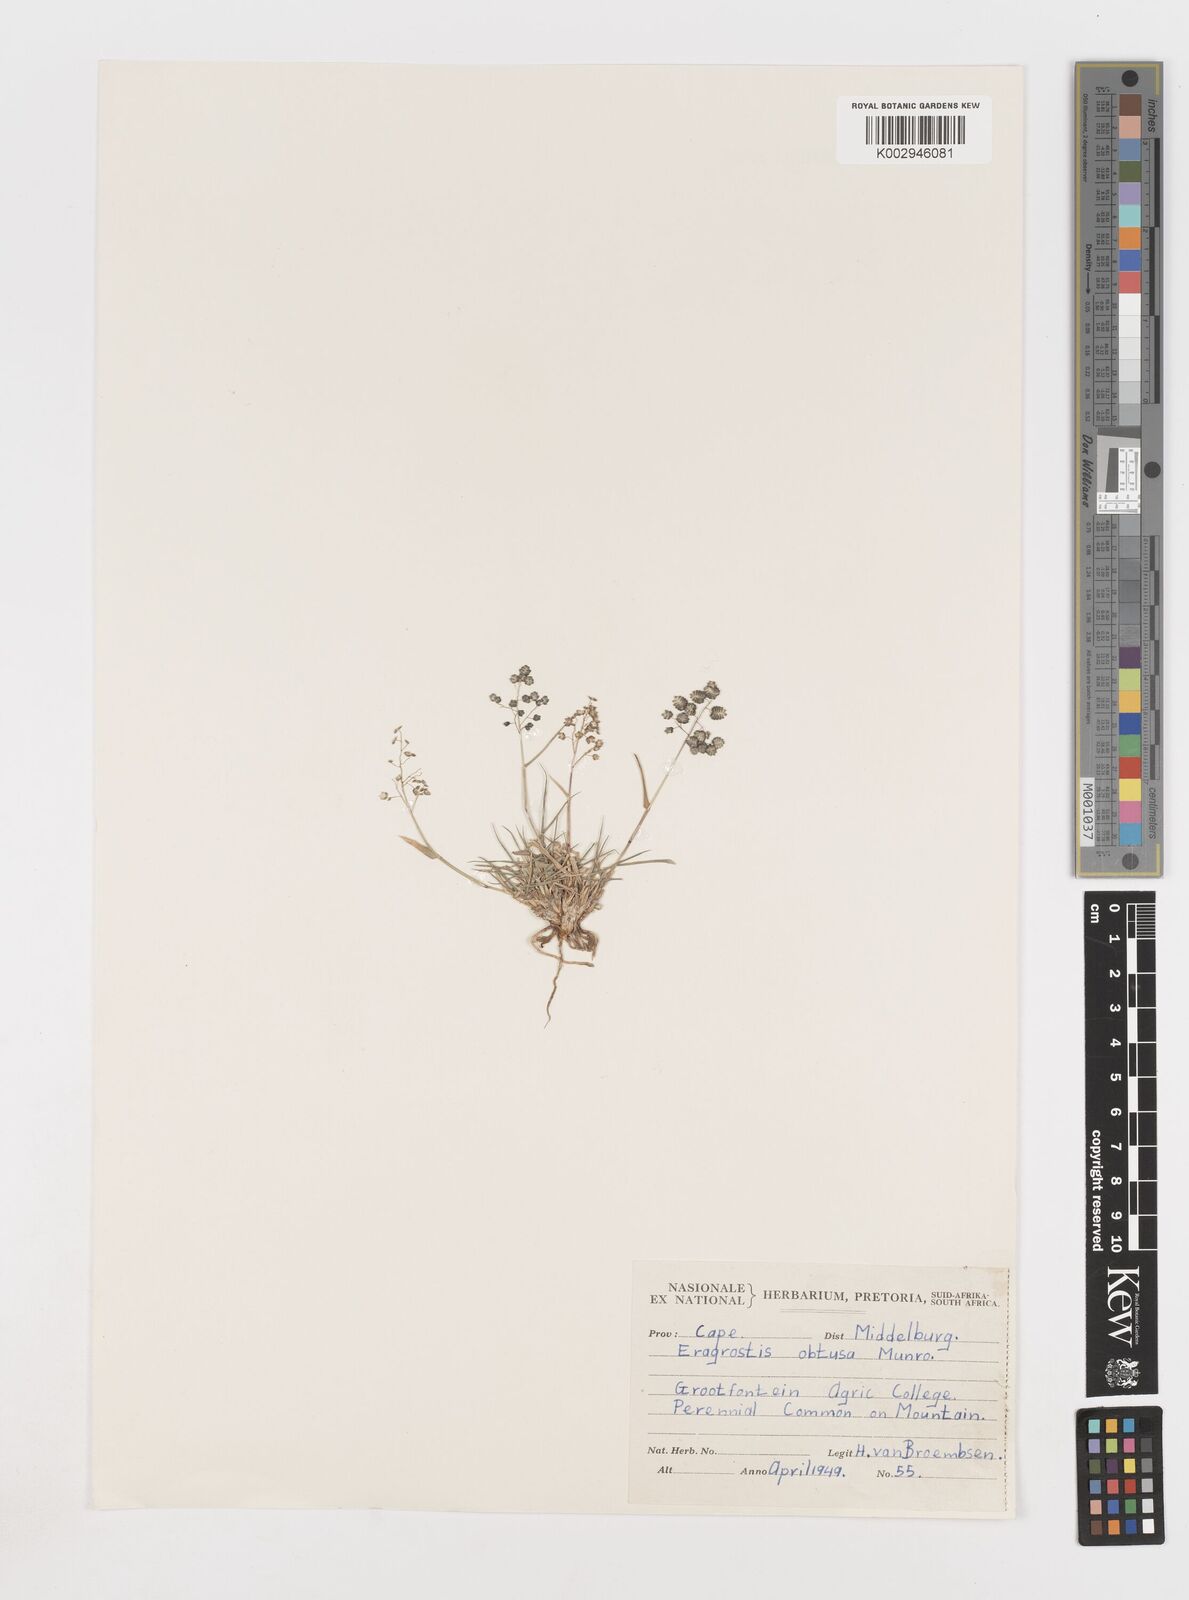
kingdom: Plantae
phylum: Tracheophyta
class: Liliopsida
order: Poales
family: Poaceae
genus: Eragrostis
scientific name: Eragrostis obtusa
